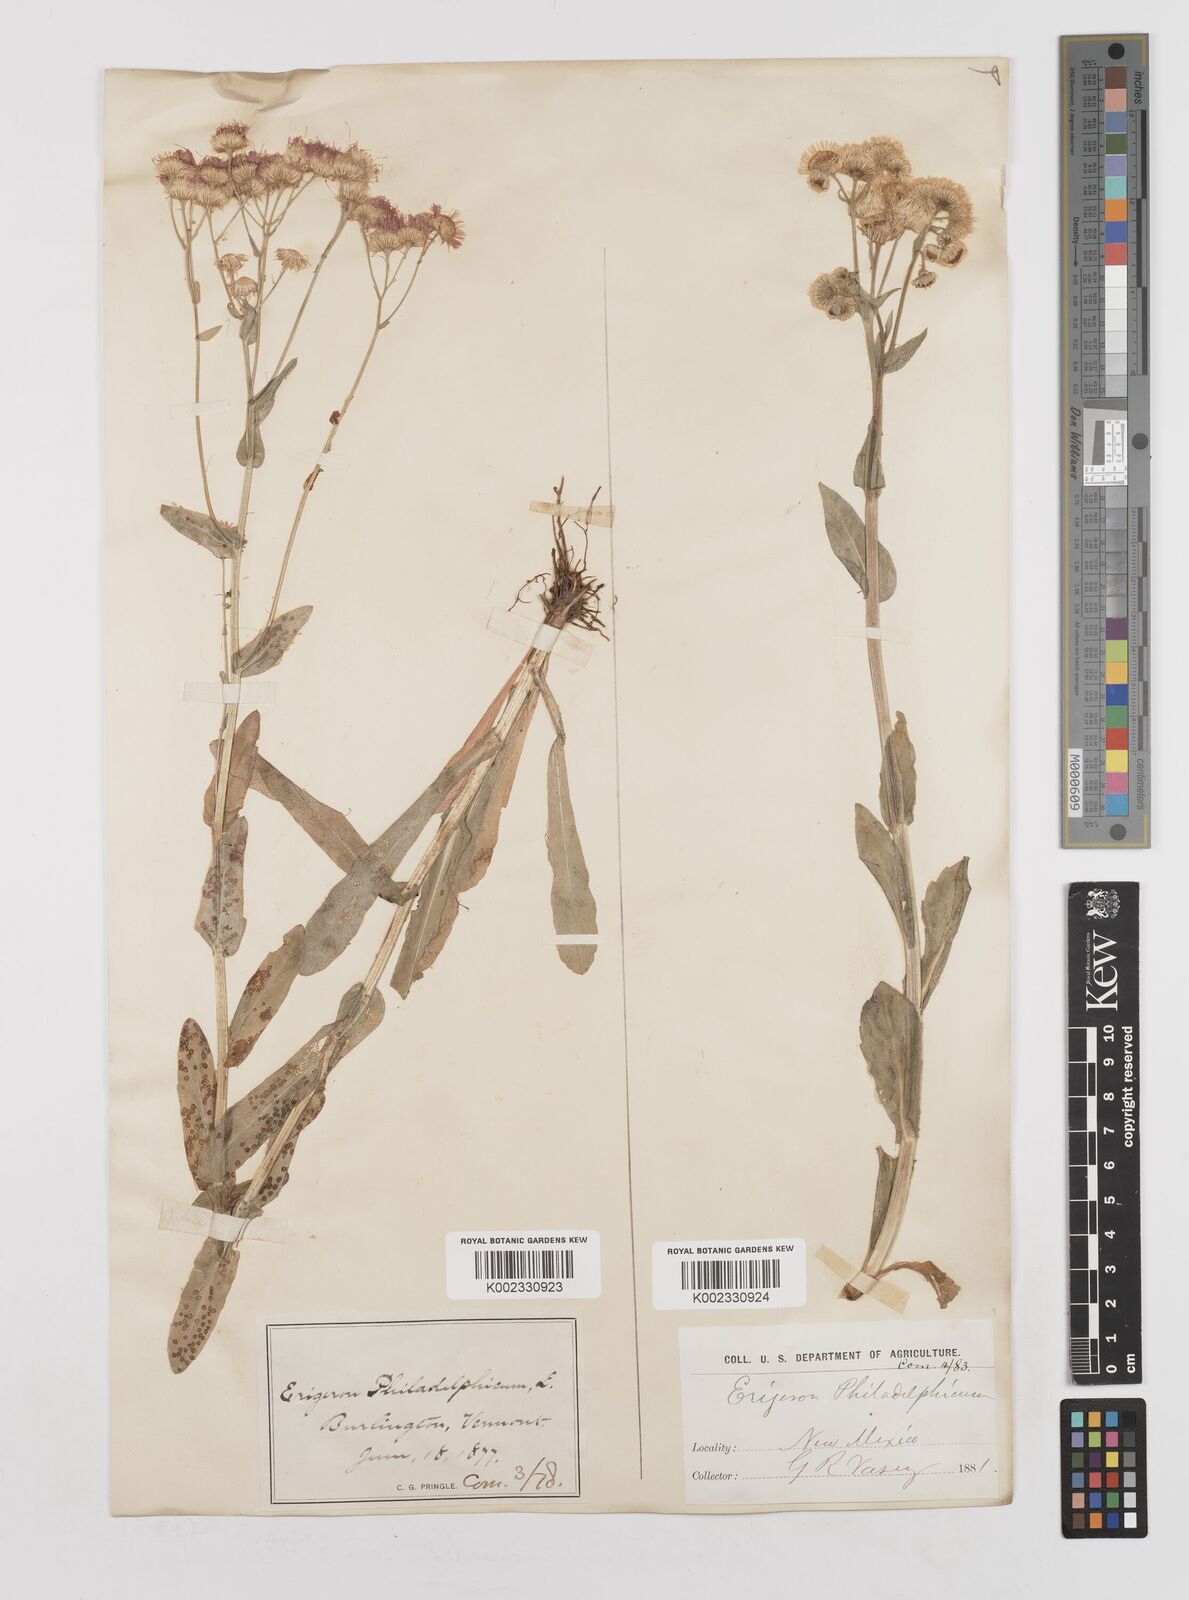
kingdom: Plantae
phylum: Tracheophyta
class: Magnoliopsida
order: Asterales
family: Asteraceae
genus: Erigeron
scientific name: Erigeron philadelphicus
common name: Robin's-plantain
